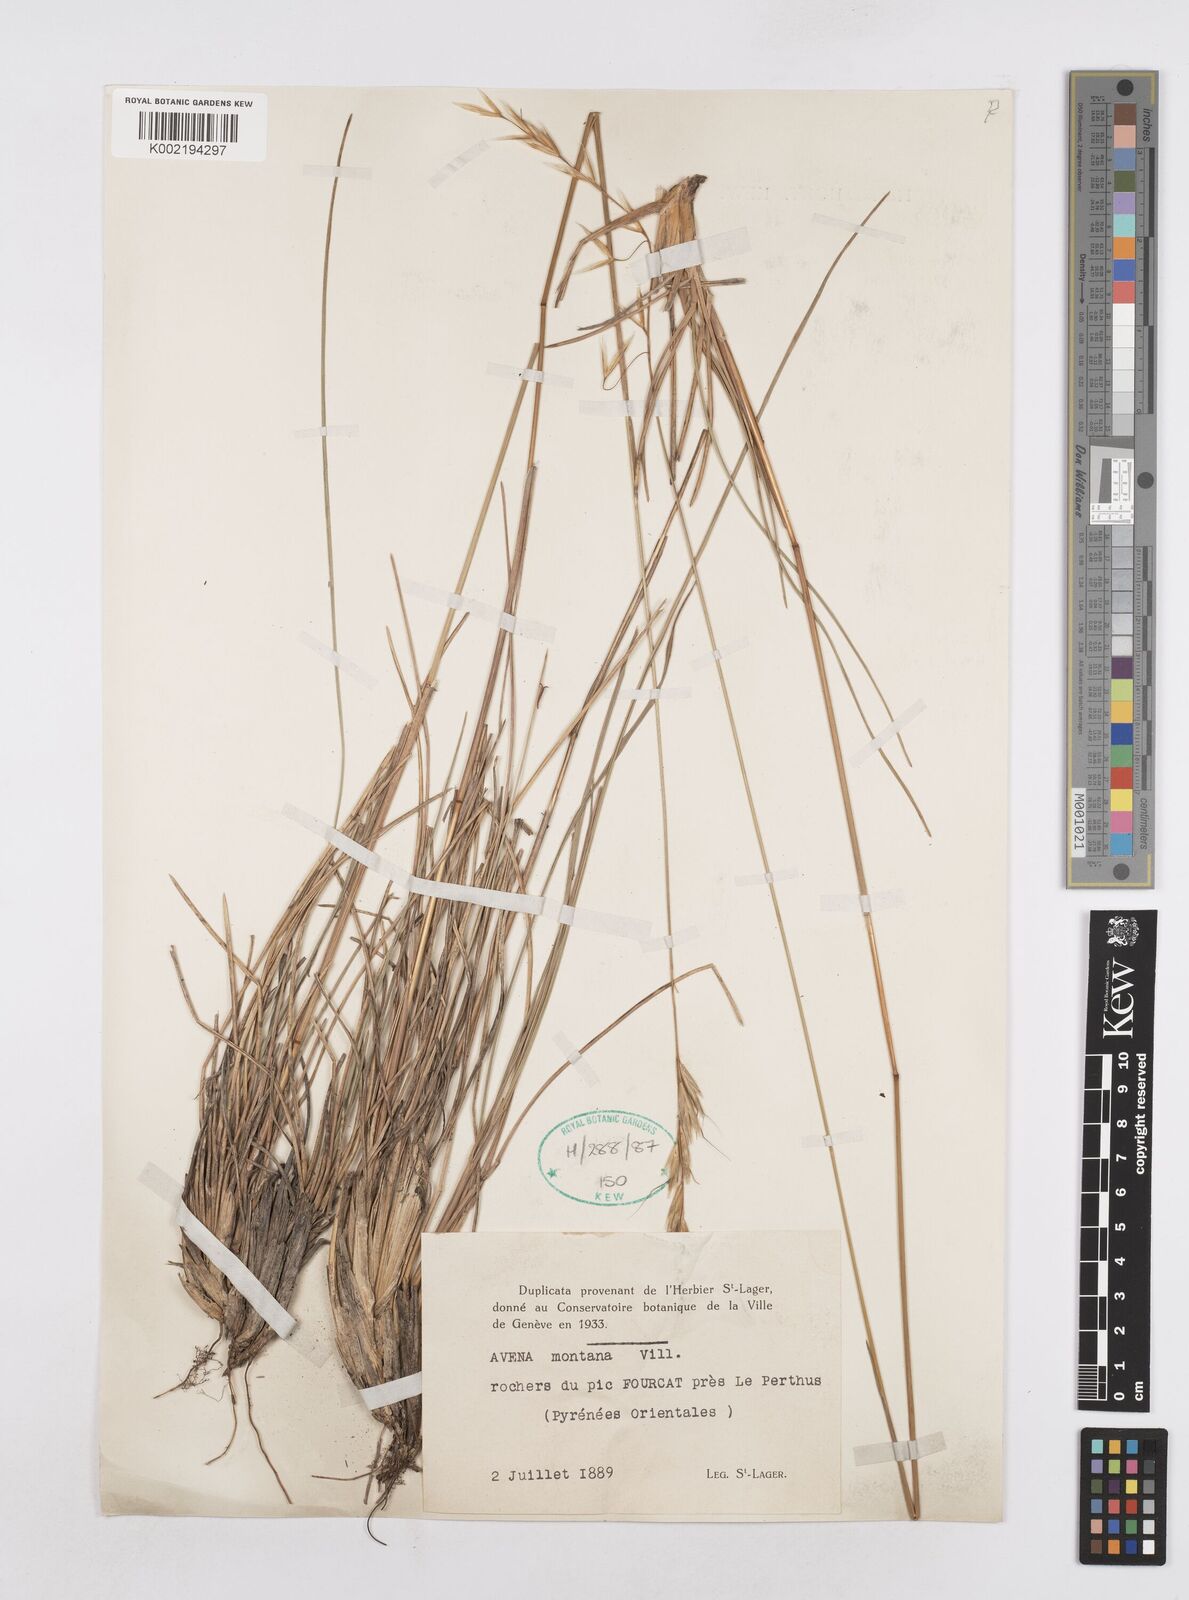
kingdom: Plantae
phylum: Tracheophyta
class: Liliopsida
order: Poales
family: Poaceae
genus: Helictotrichon
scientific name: Helictotrichon sedenense
